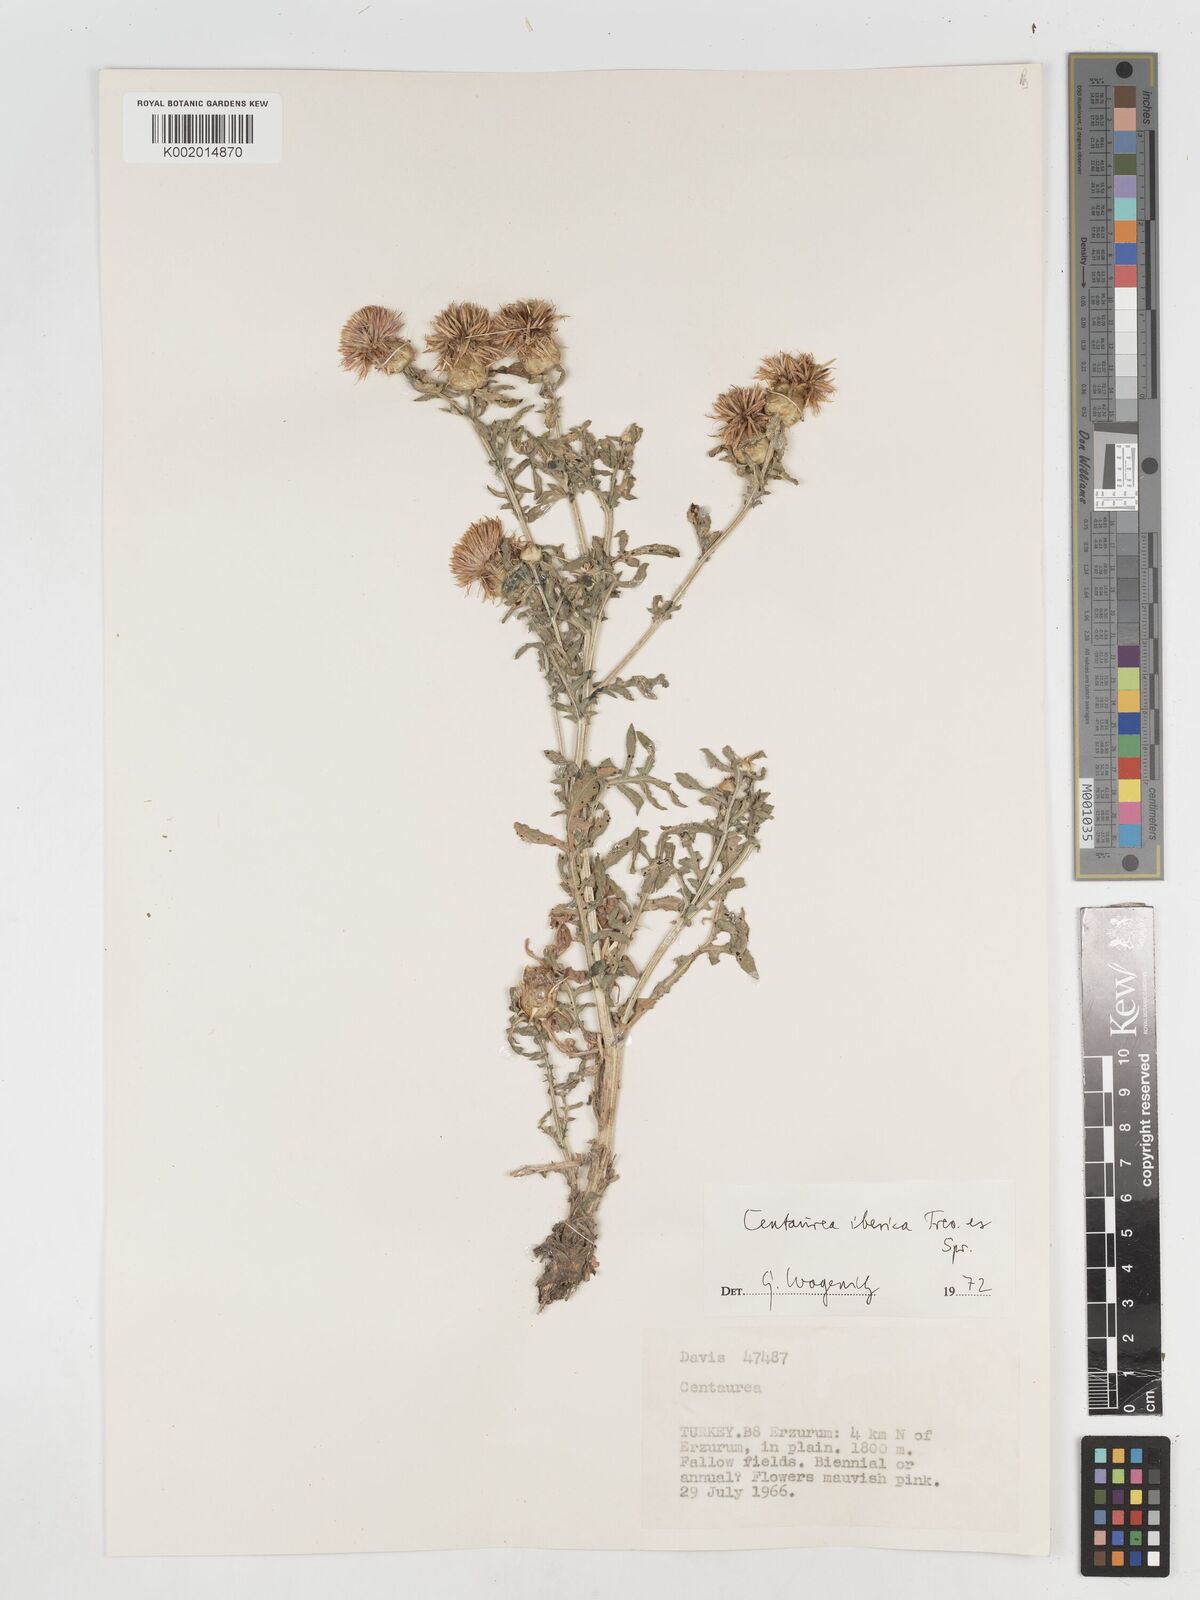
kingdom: Plantae
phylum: Tracheophyta
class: Magnoliopsida
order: Asterales
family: Asteraceae
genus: Centaurea
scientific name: Centaurea iberica
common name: Iberian knapweed
